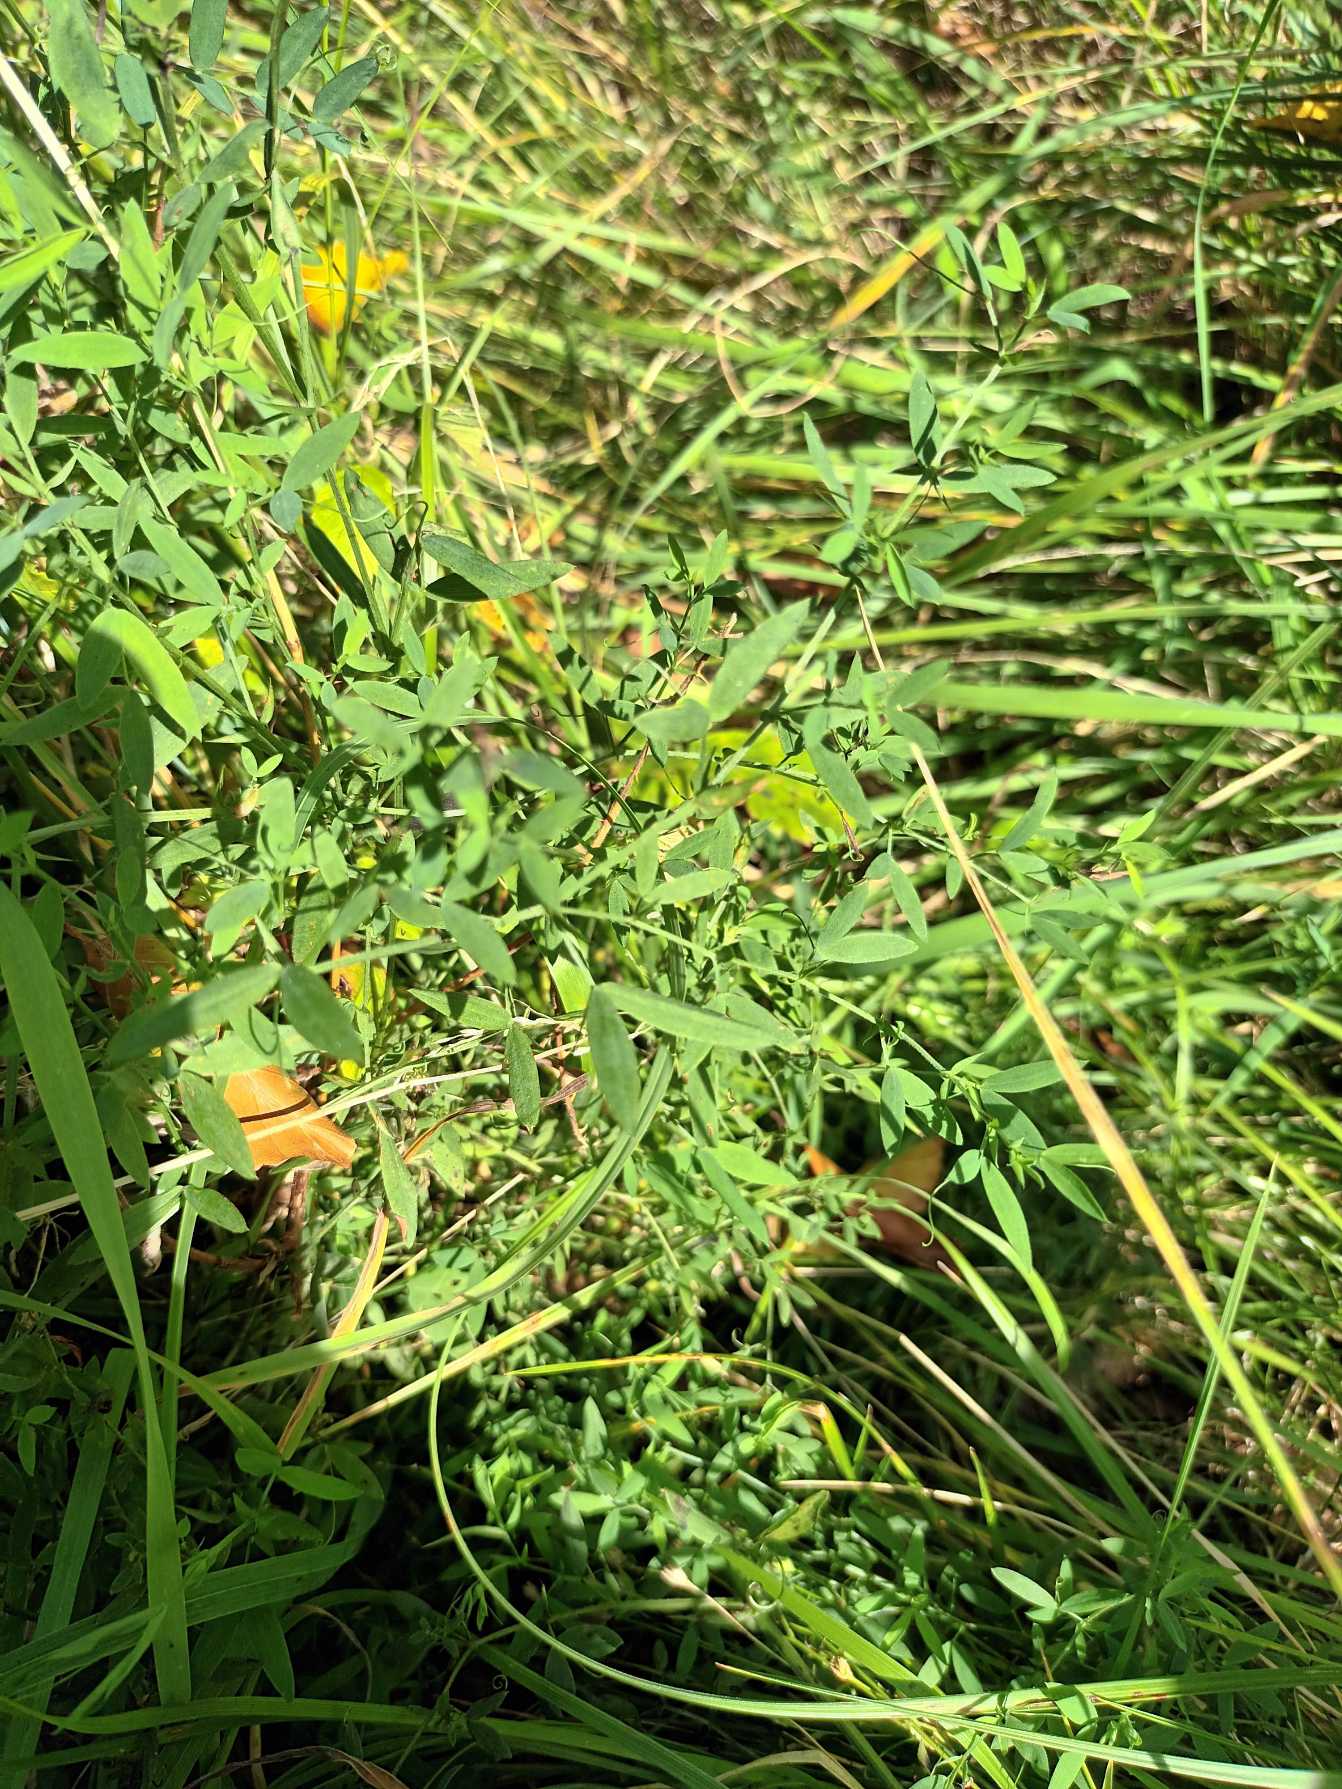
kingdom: Plantae
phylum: Tracheophyta
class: Magnoliopsida
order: Fabales
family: Fabaceae
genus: Lathyrus
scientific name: Lathyrus pratensis
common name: Gul fladbælg
